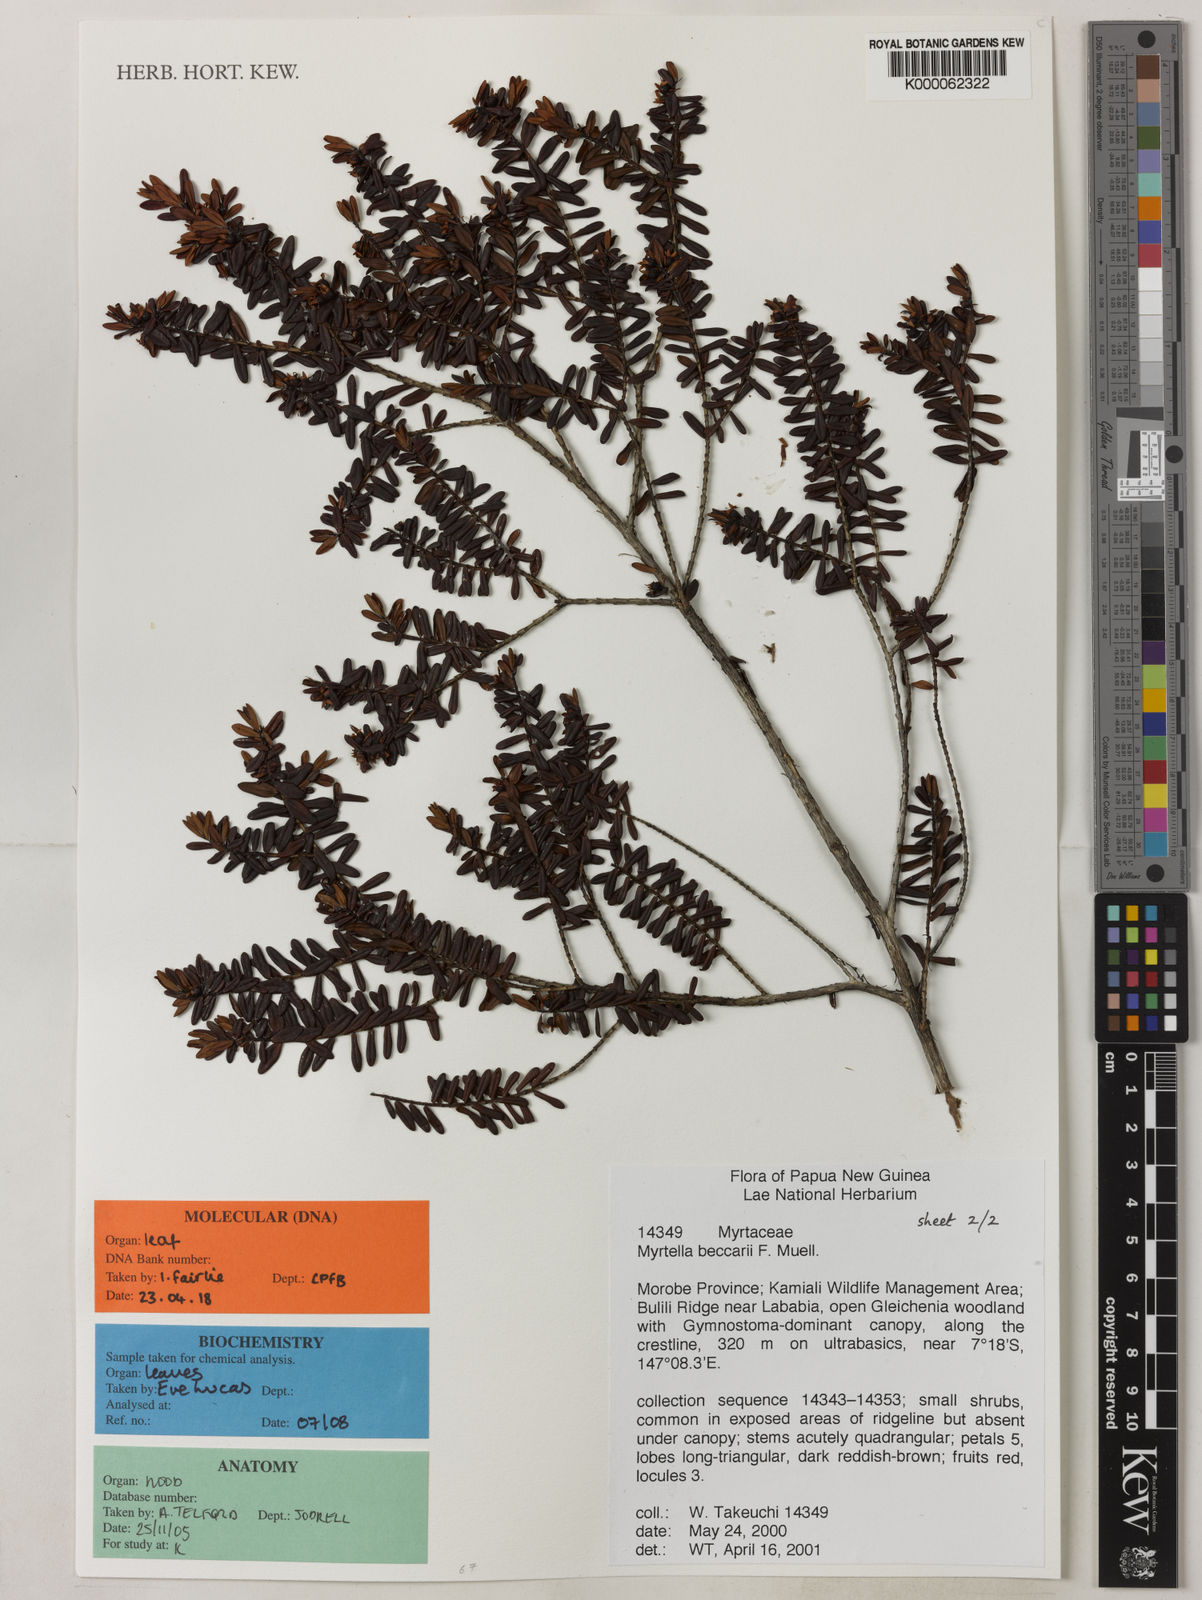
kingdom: Plantae
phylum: Tracheophyta
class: Magnoliopsida
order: Myrtales
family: Myrtaceae
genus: Myrtella
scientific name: Myrtella beccarii
